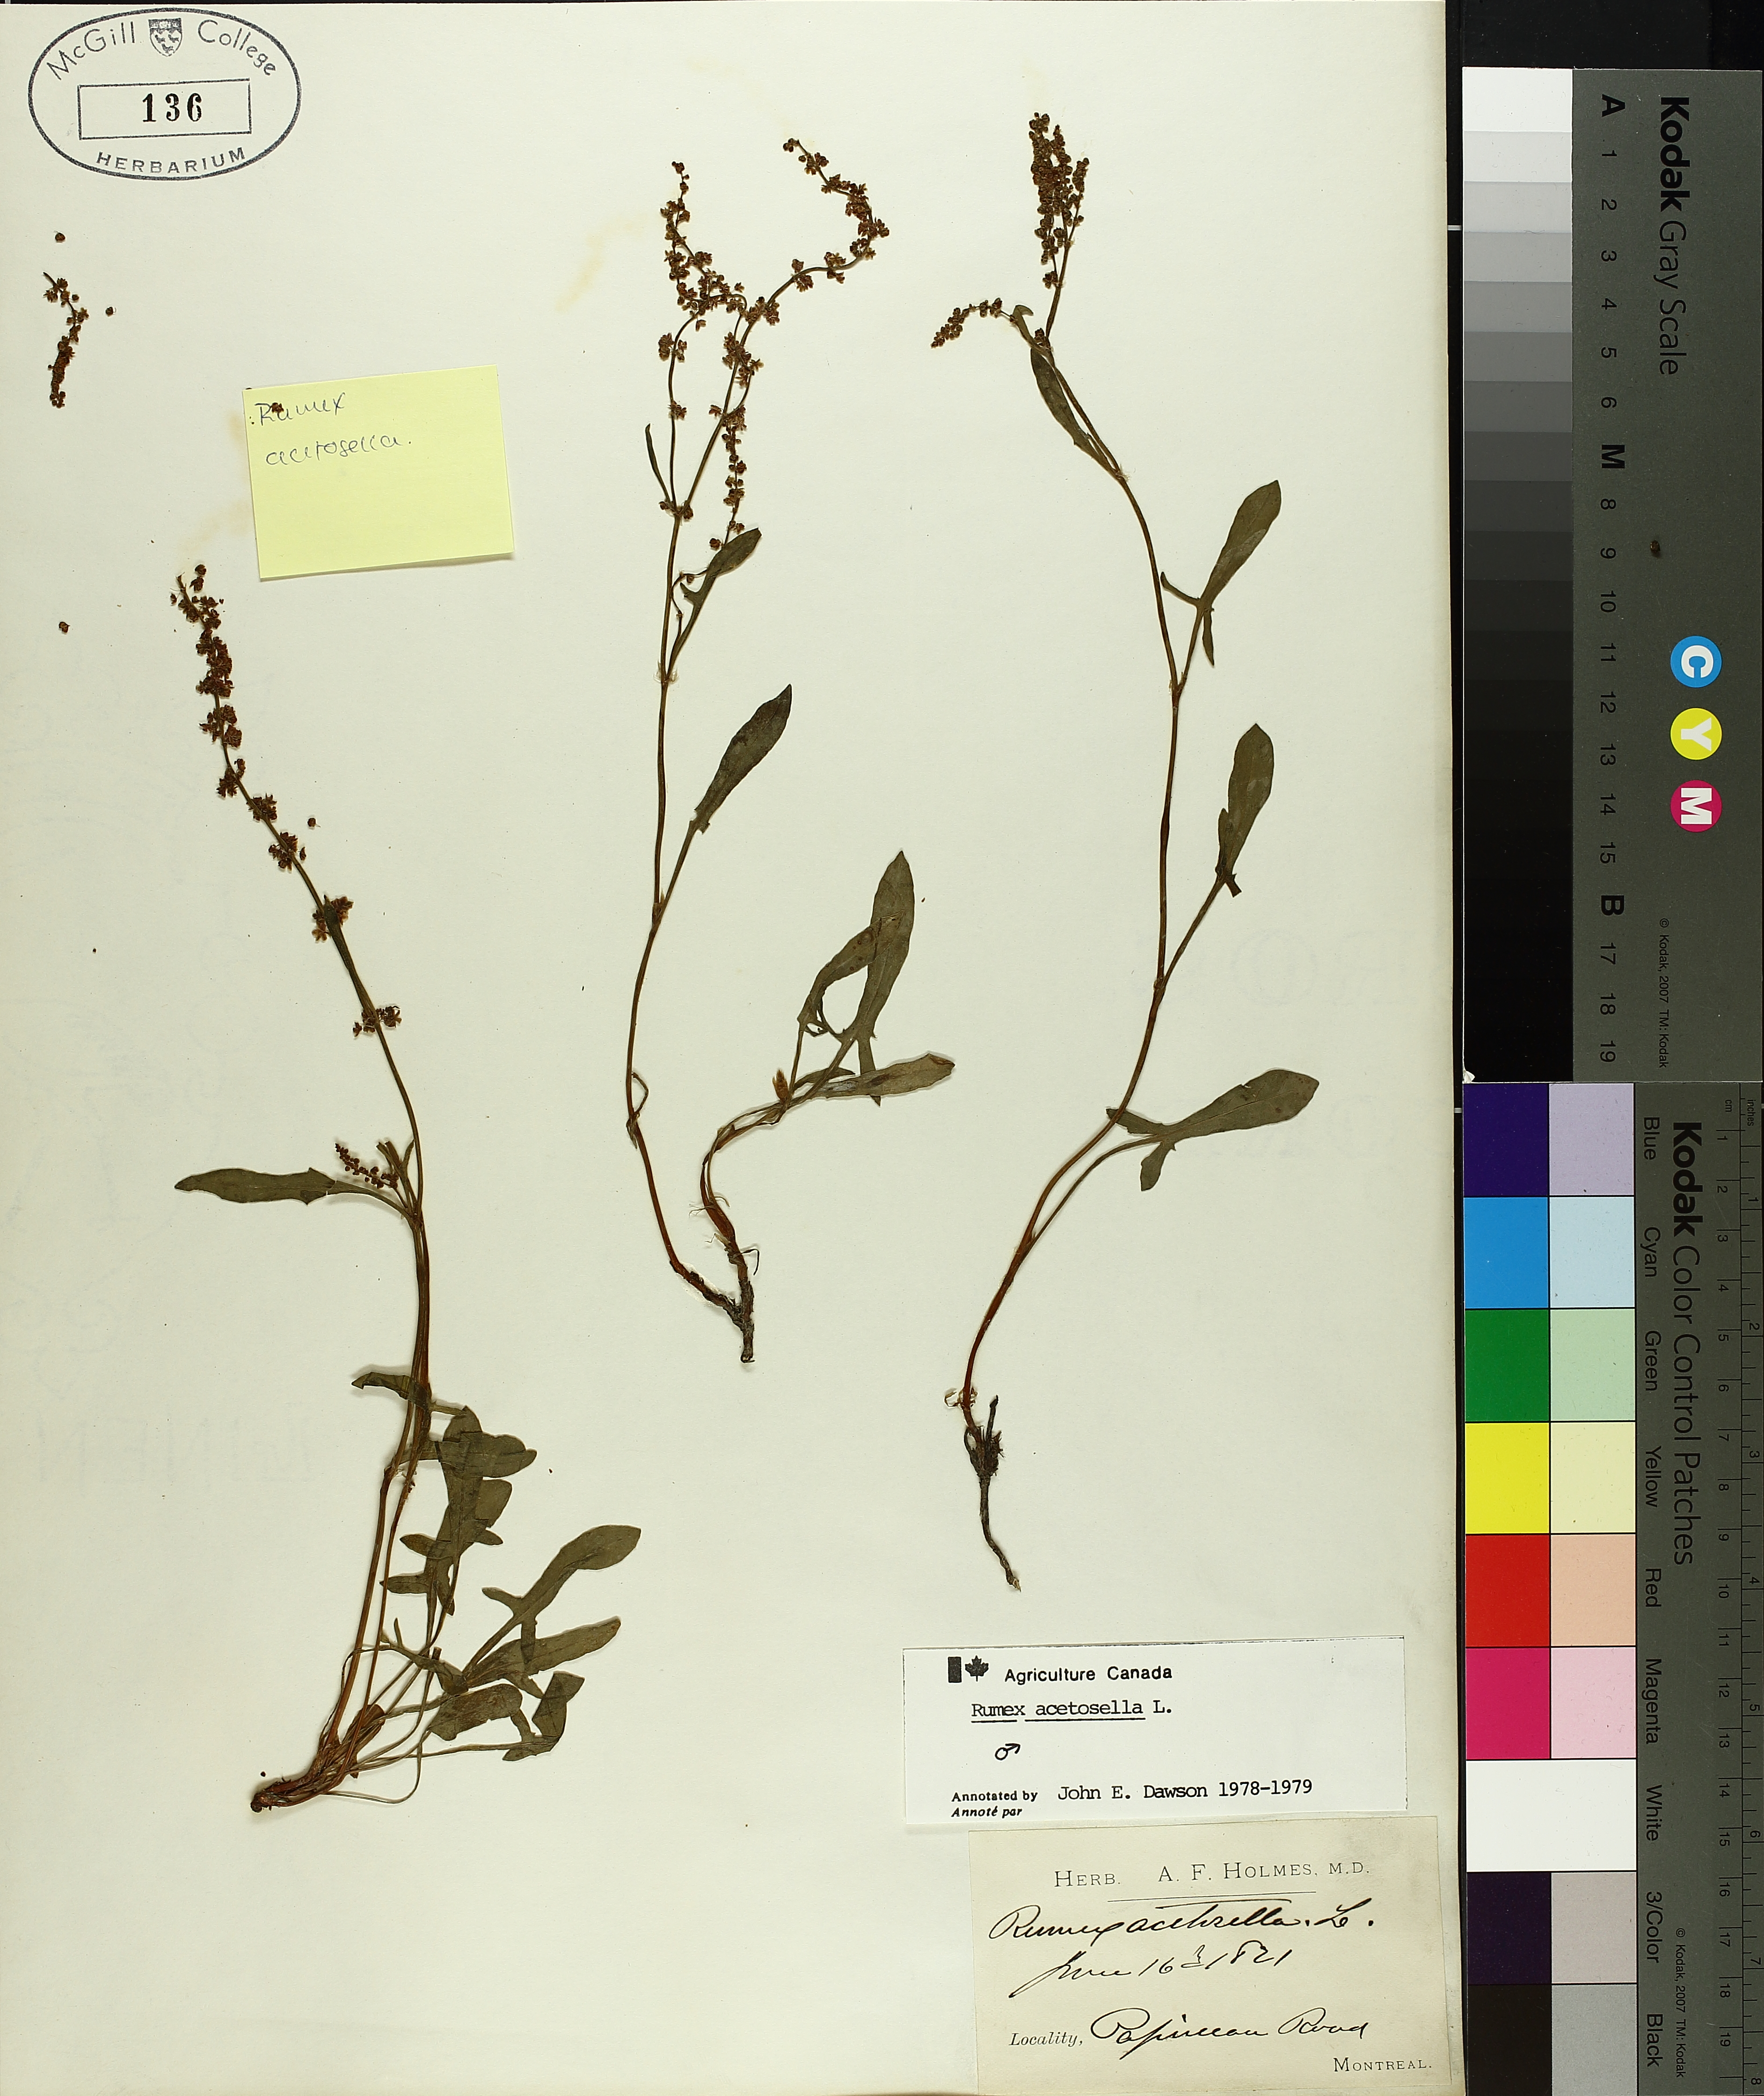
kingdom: Plantae
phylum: Tracheophyta
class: Magnoliopsida
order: Caryophyllales
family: Polygonaceae
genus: Rumex
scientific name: Rumex acetosella
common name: Common sheep sorrel
